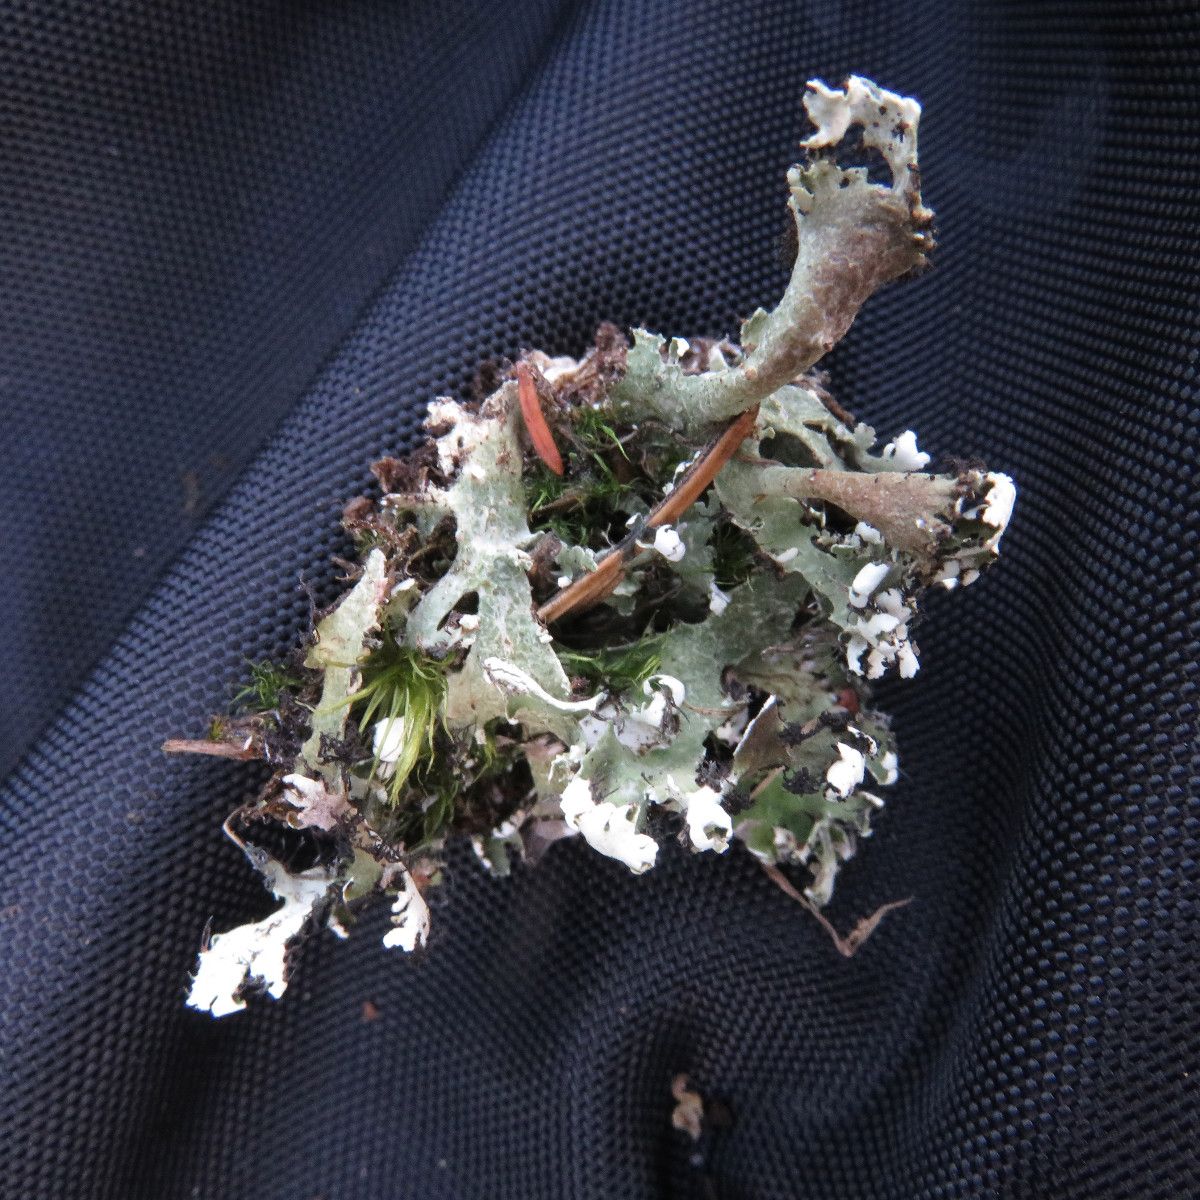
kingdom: Fungi
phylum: Ascomycota
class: Lecanoromycetes
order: Lecanorales
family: Cladoniaceae
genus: Cladonia
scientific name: Cladonia foliacea
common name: fliget bægerlav
